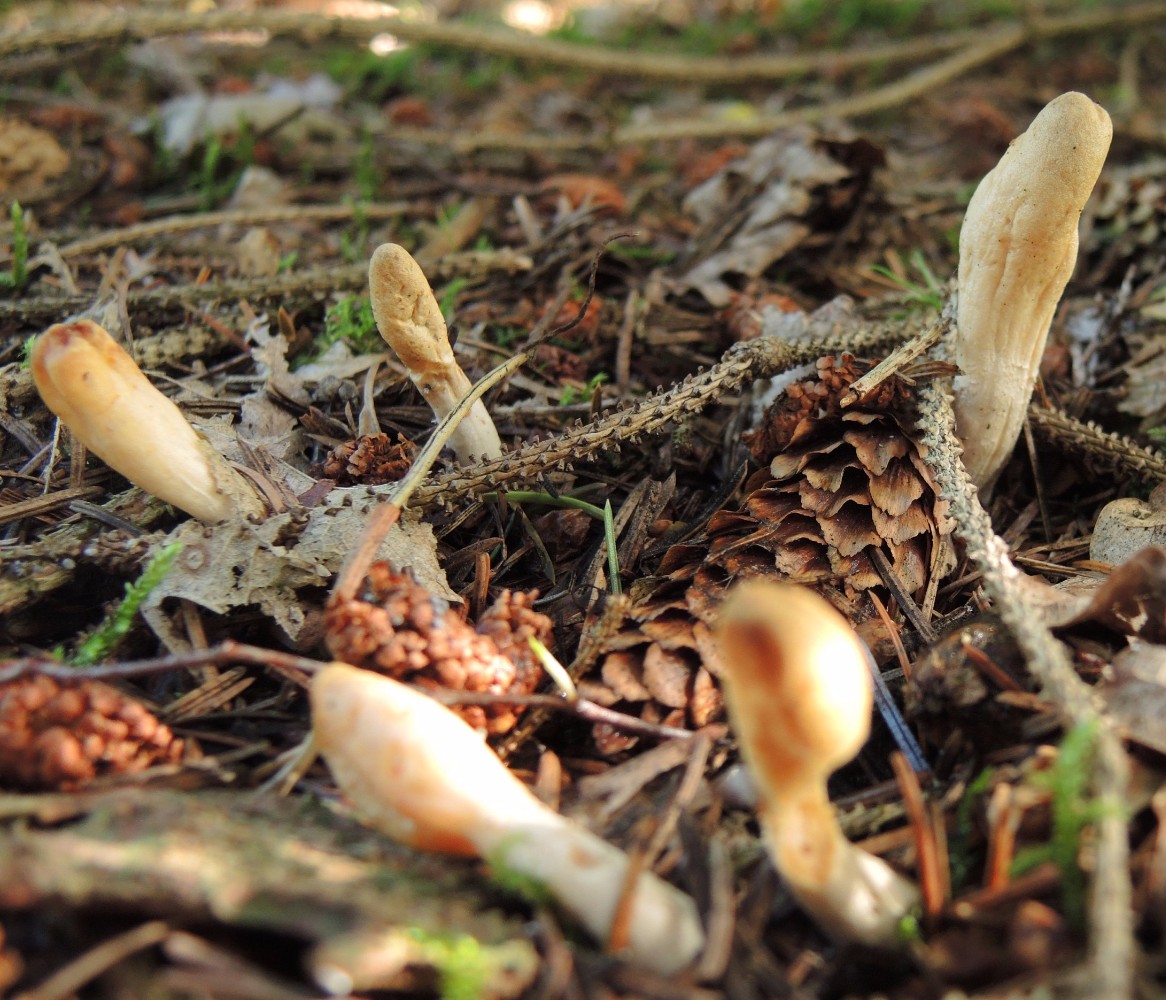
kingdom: Fungi
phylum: Ascomycota
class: Sordariomycetes
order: Hypocreales
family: Hypocreaceae
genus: Trichoderma
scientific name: Trichoderma leucopus
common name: lysstokket kødkerne
